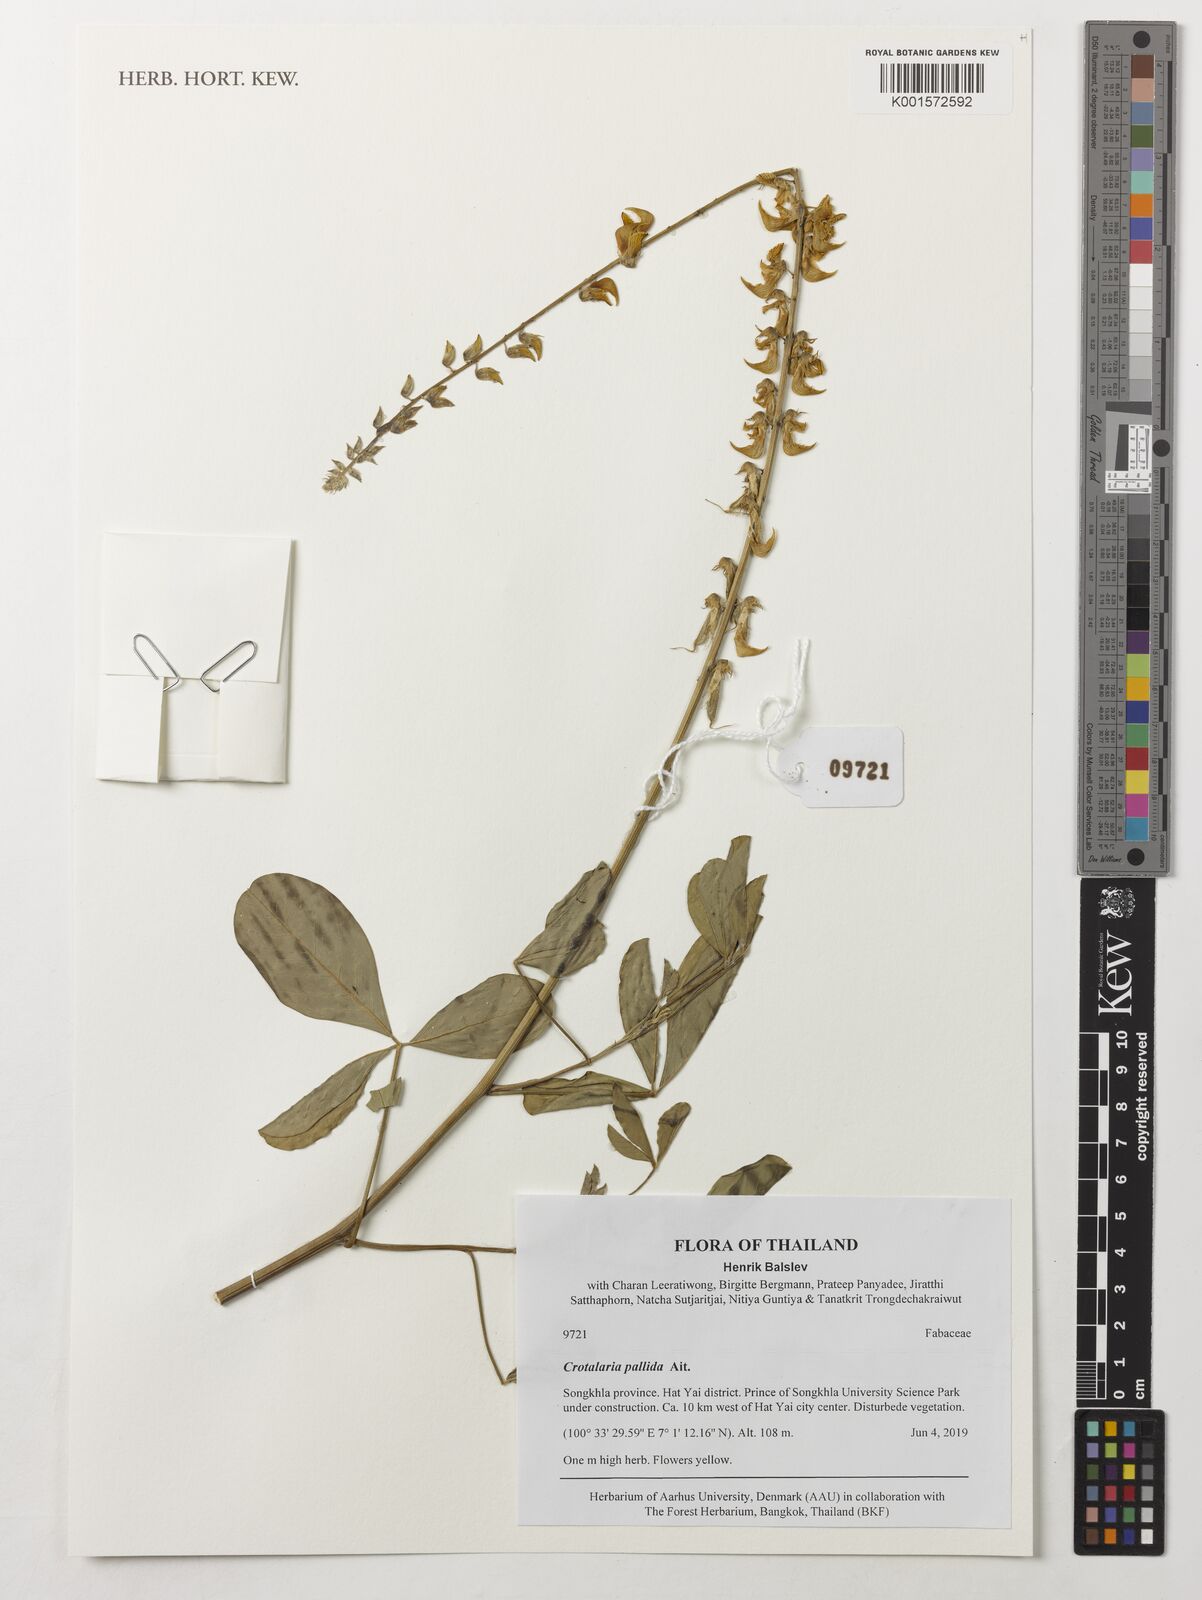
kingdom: Plantae
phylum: Tracheophyta
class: Magnoliopsida
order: Fabales
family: Fabaceae
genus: Crotalaria
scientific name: Crotalaria pallida
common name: Smooth rattlebox
